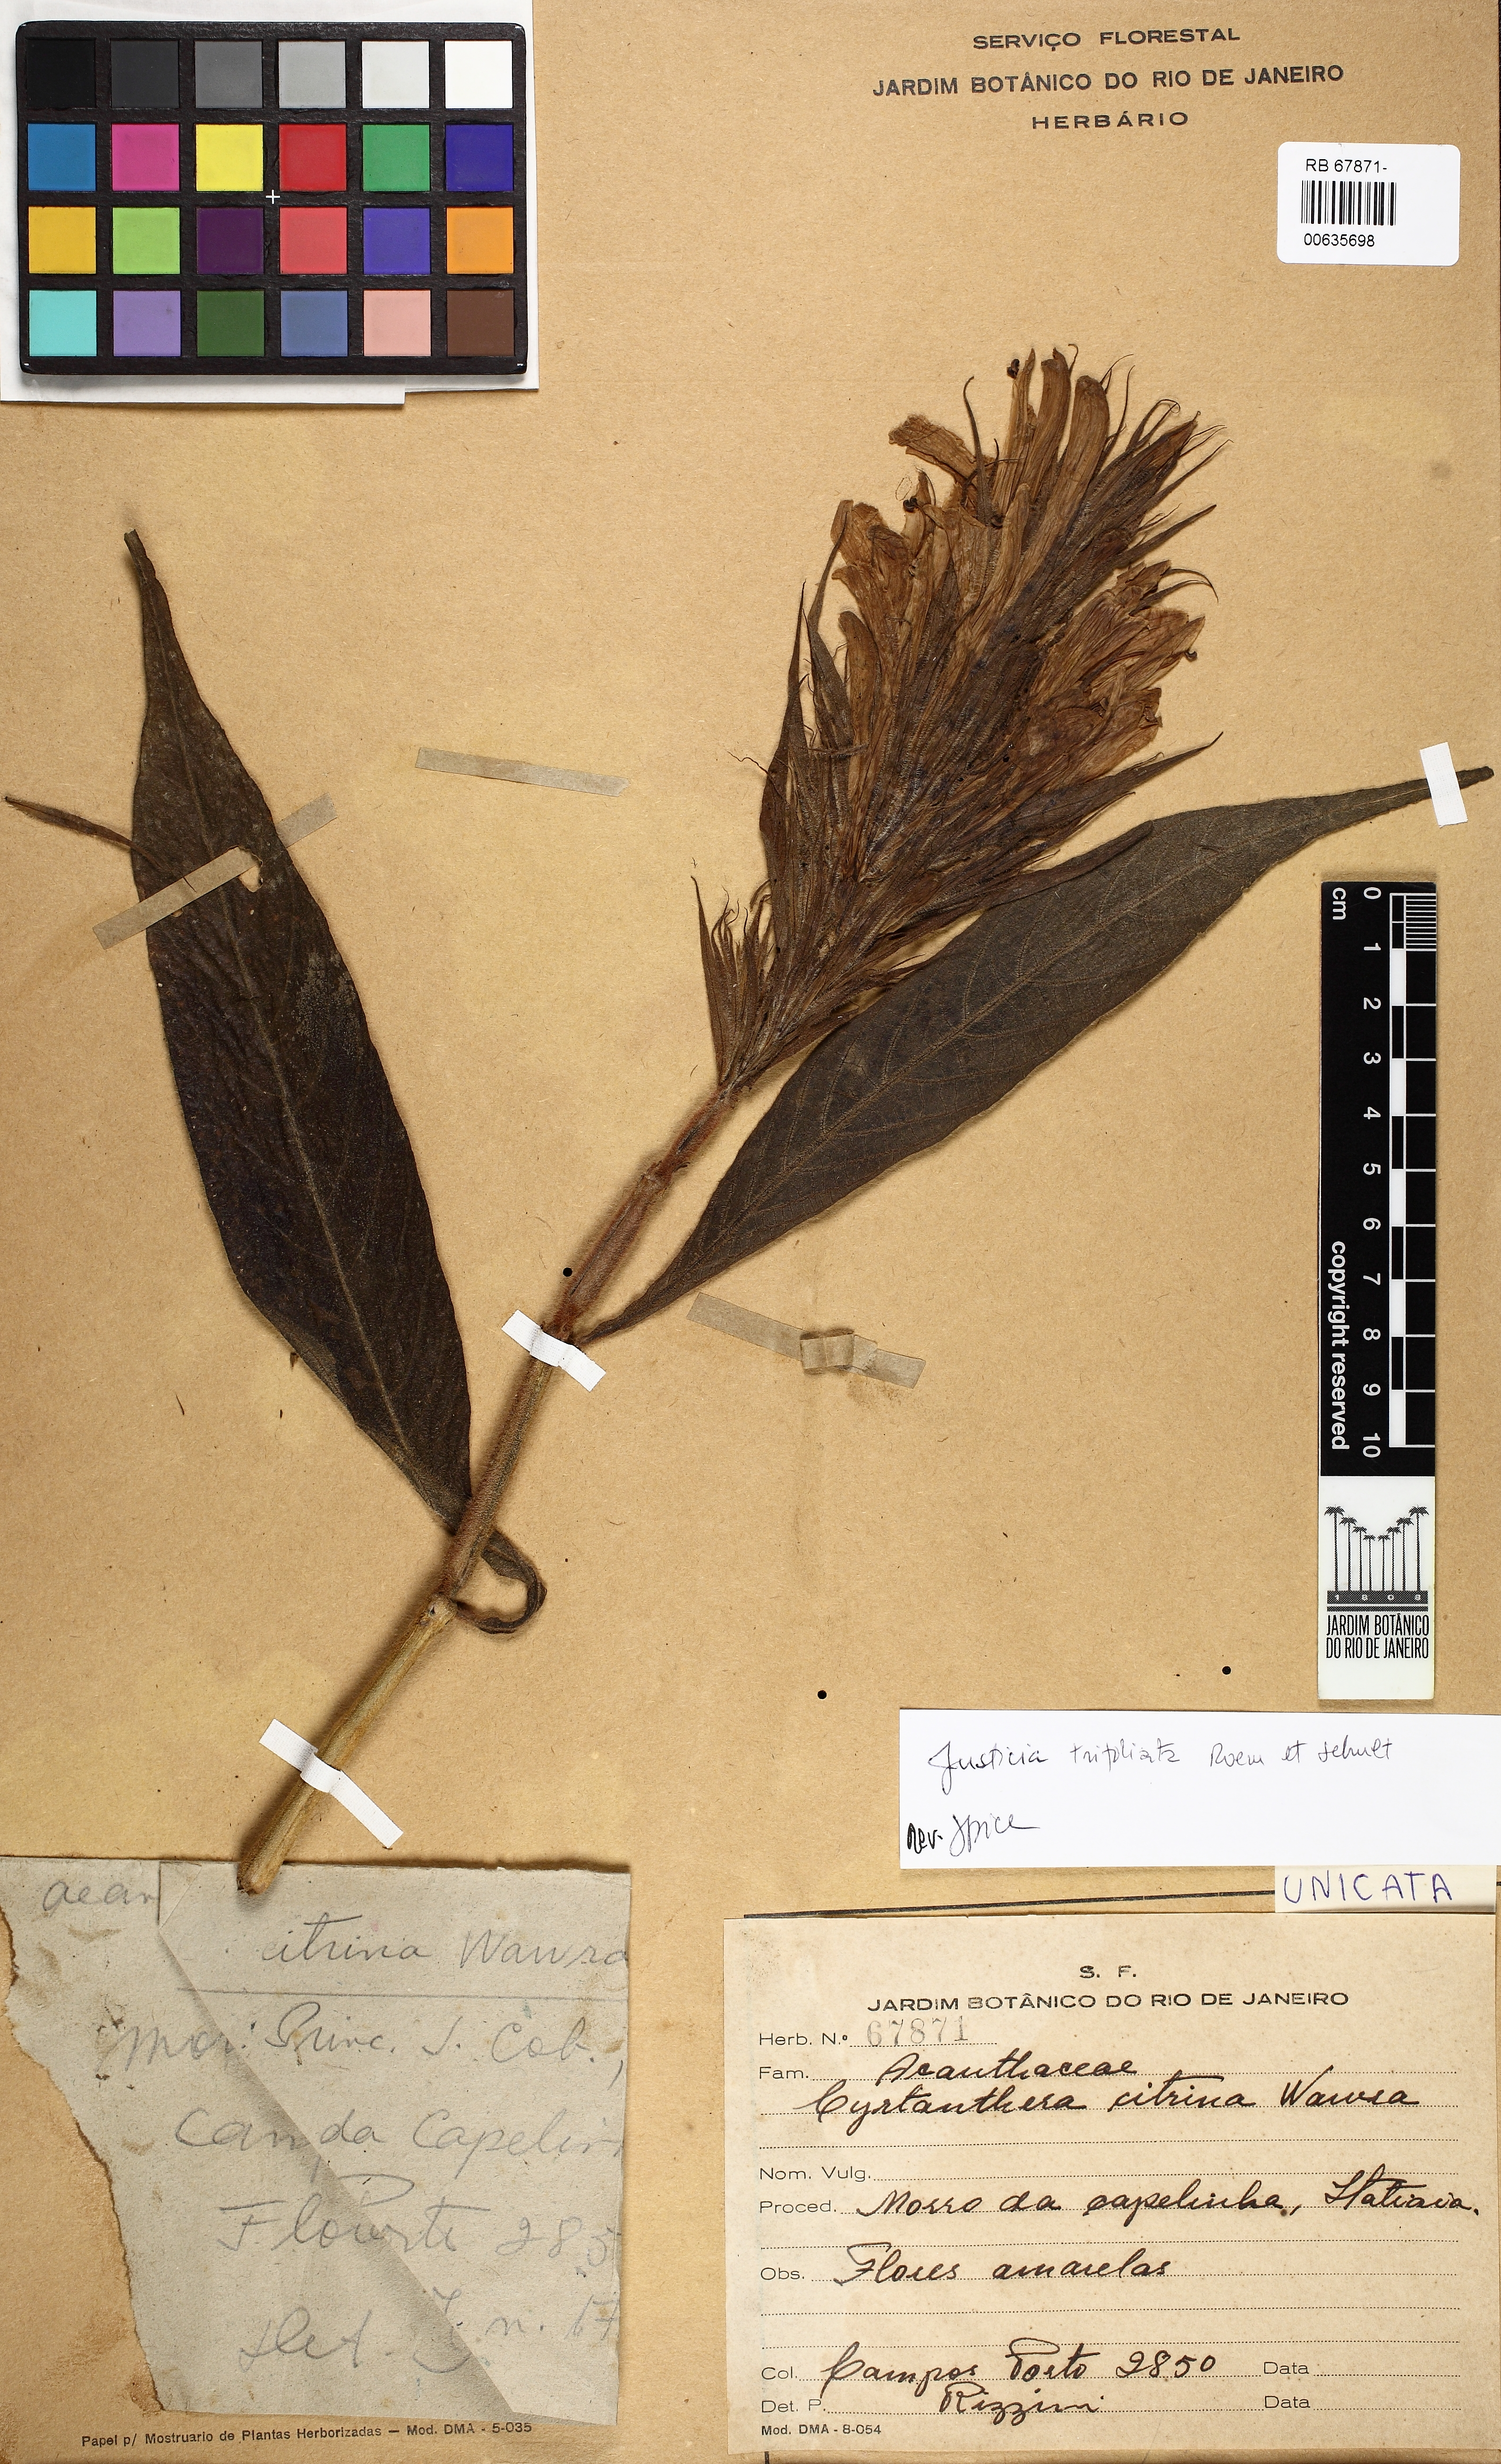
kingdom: Plantae
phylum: Tracheophyta
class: Magnoliopsida
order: Lamiales
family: Acanthaceae
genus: Justicia
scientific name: Justicia citrina
